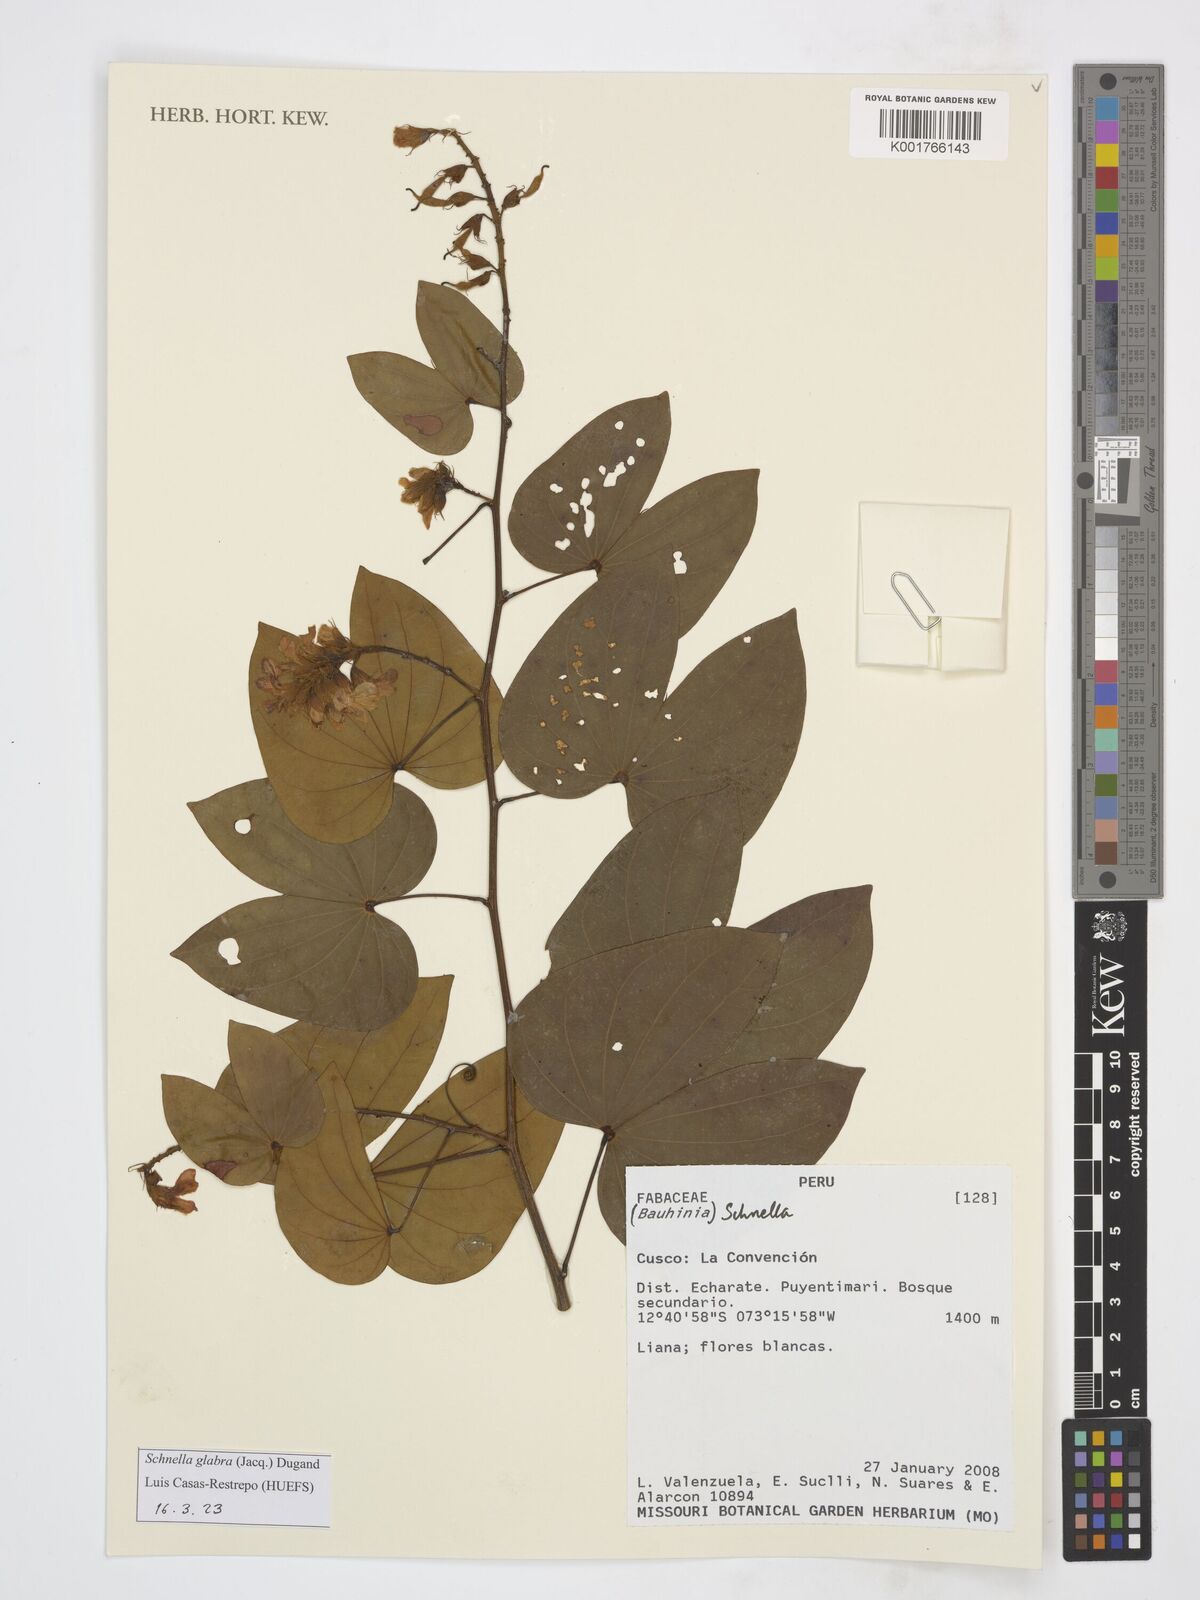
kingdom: Plantae
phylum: Tracheophyta
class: Magnoliopsida
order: Fabales
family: Fabaceae
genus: Schnella
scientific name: Schnella glabra
